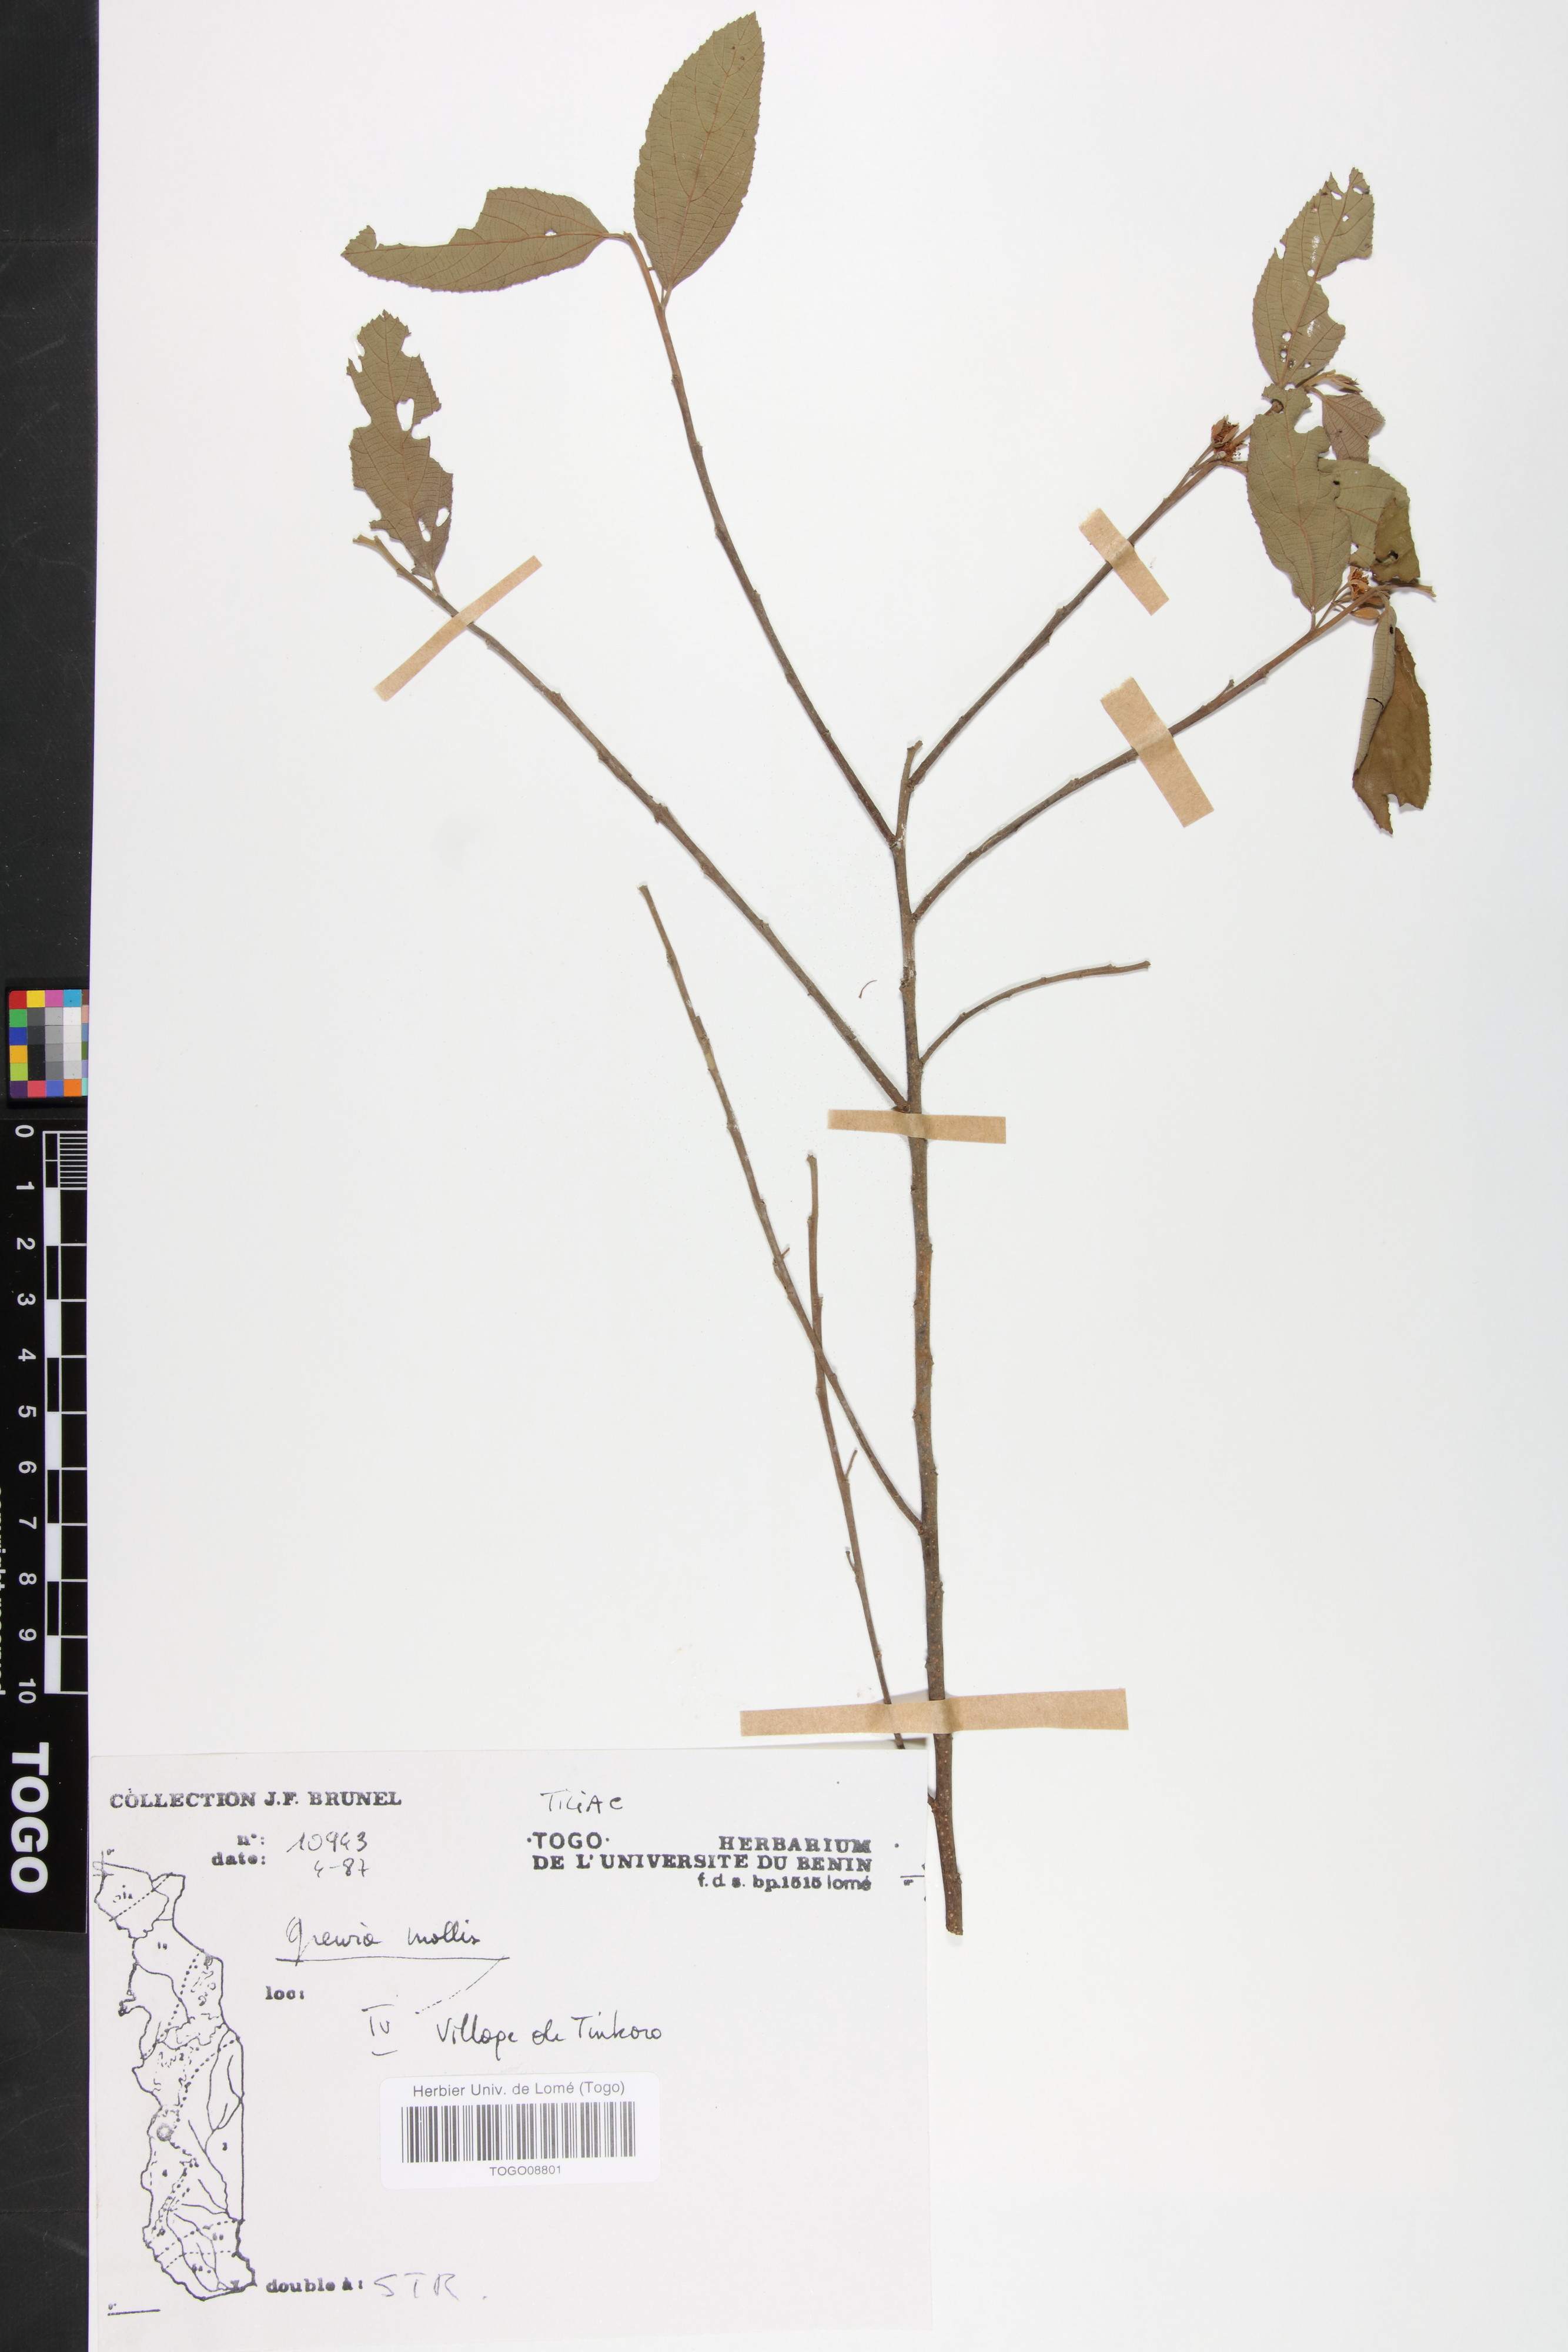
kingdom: Plantae
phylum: Tracheophyta
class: Magnoliopsida
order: Malvales
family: Malvaceae
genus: Grewia
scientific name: Grewia mollis
